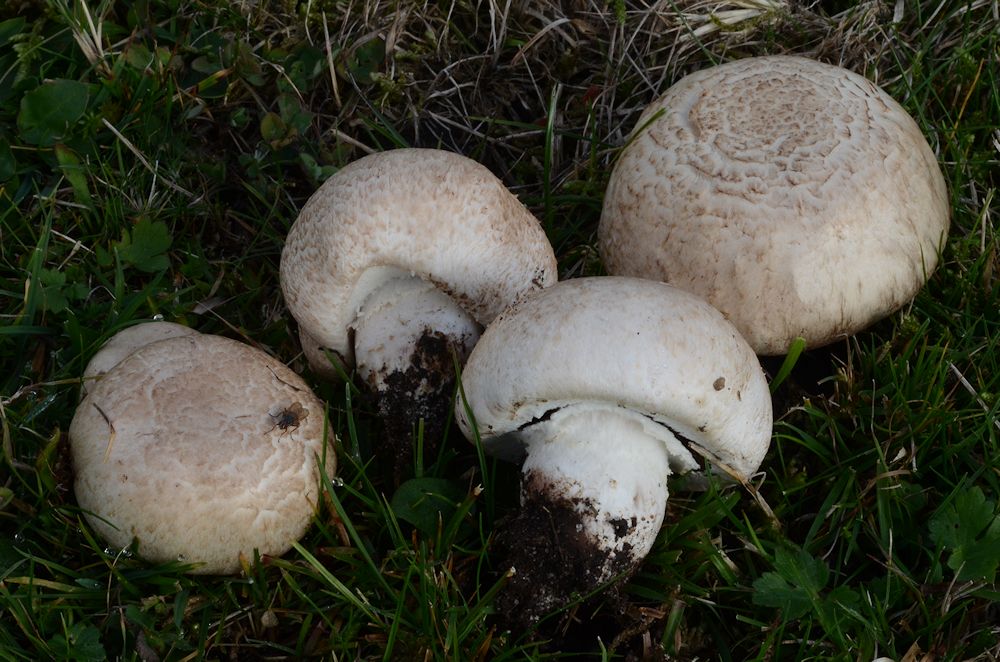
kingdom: Fungi
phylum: Basidiomycota
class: Agaricomycetes
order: Agaricales
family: Agaricaceae
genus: Agaricus
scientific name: Agaricus litoralis
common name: kyst-champignon
